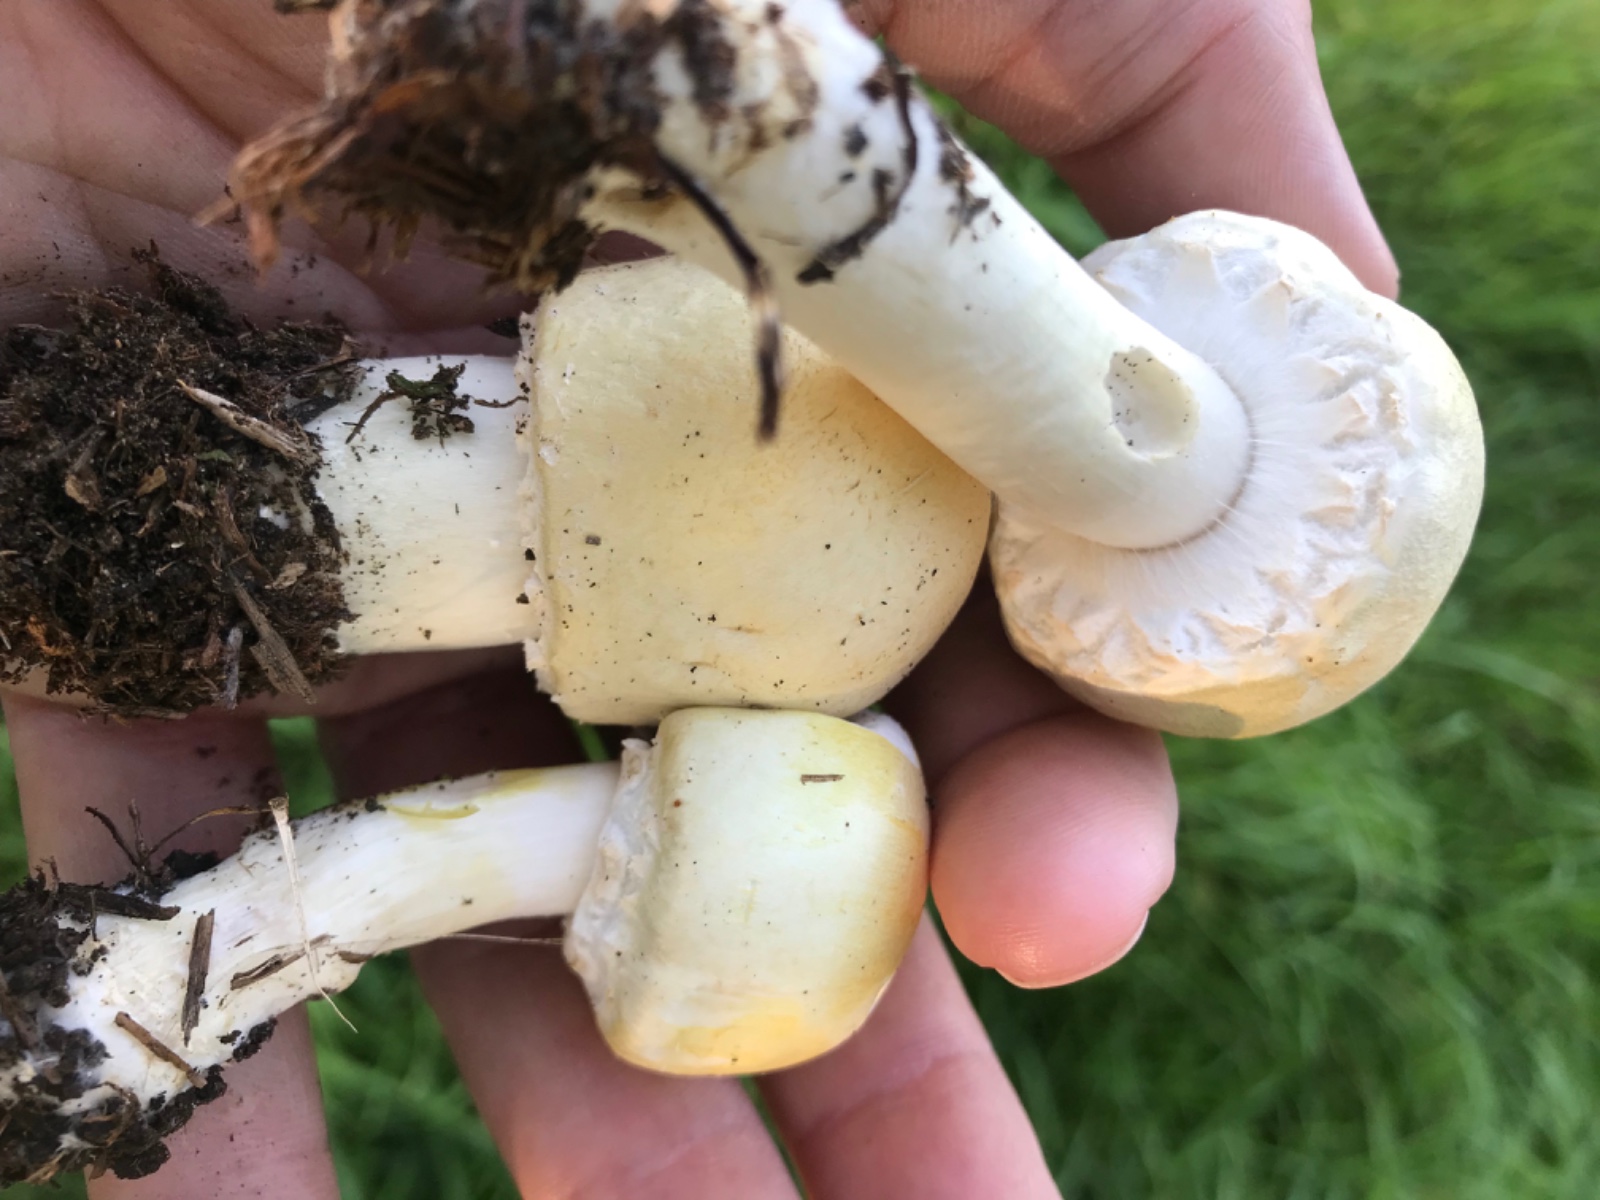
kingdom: Fungi
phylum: Basidiomycota
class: Agaricomycetes
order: Agaricales
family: Agaricaceae
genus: Agaricus
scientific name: Agaricus
